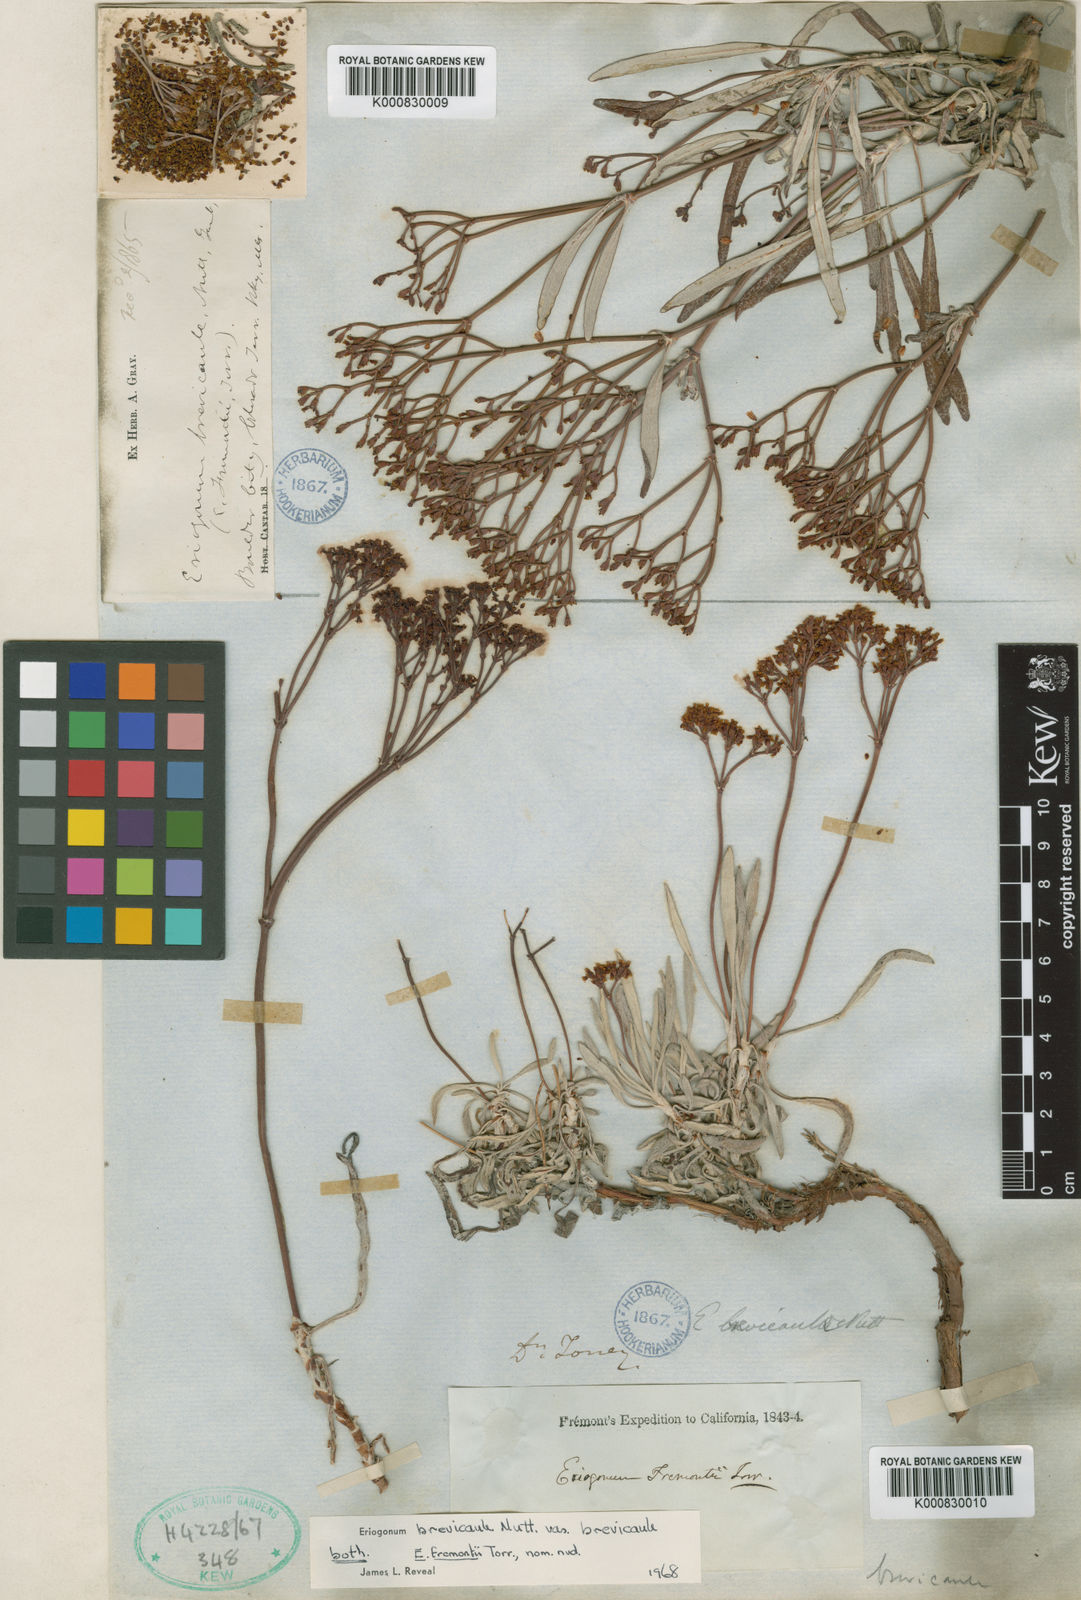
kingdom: Plantae
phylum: Tracheophyta
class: Magnoliopsida
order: Caryophyllales
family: Polygonaceae
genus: Eriogonum
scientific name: Eriogonum brevicaule
